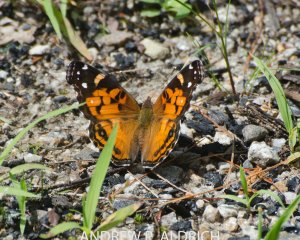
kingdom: Animalia
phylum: Arthropoda
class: Insecta
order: Lepidoptera
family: Nymphalidae
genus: Vanessa
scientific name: Vanessa virginiensis
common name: American Lady
